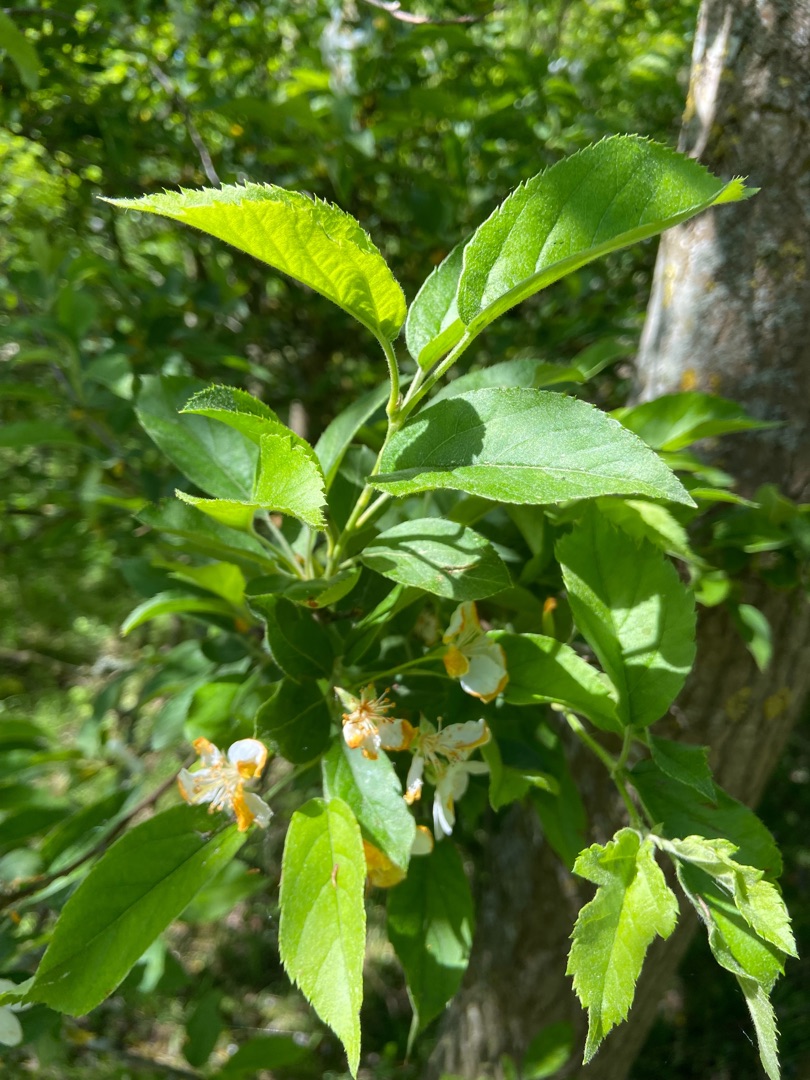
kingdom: Plantae
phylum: Tracheophyta
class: Magnoliopsida
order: Rosales
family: Rosaceae
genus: Malus
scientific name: Malus toringo
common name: Sargents-æble
